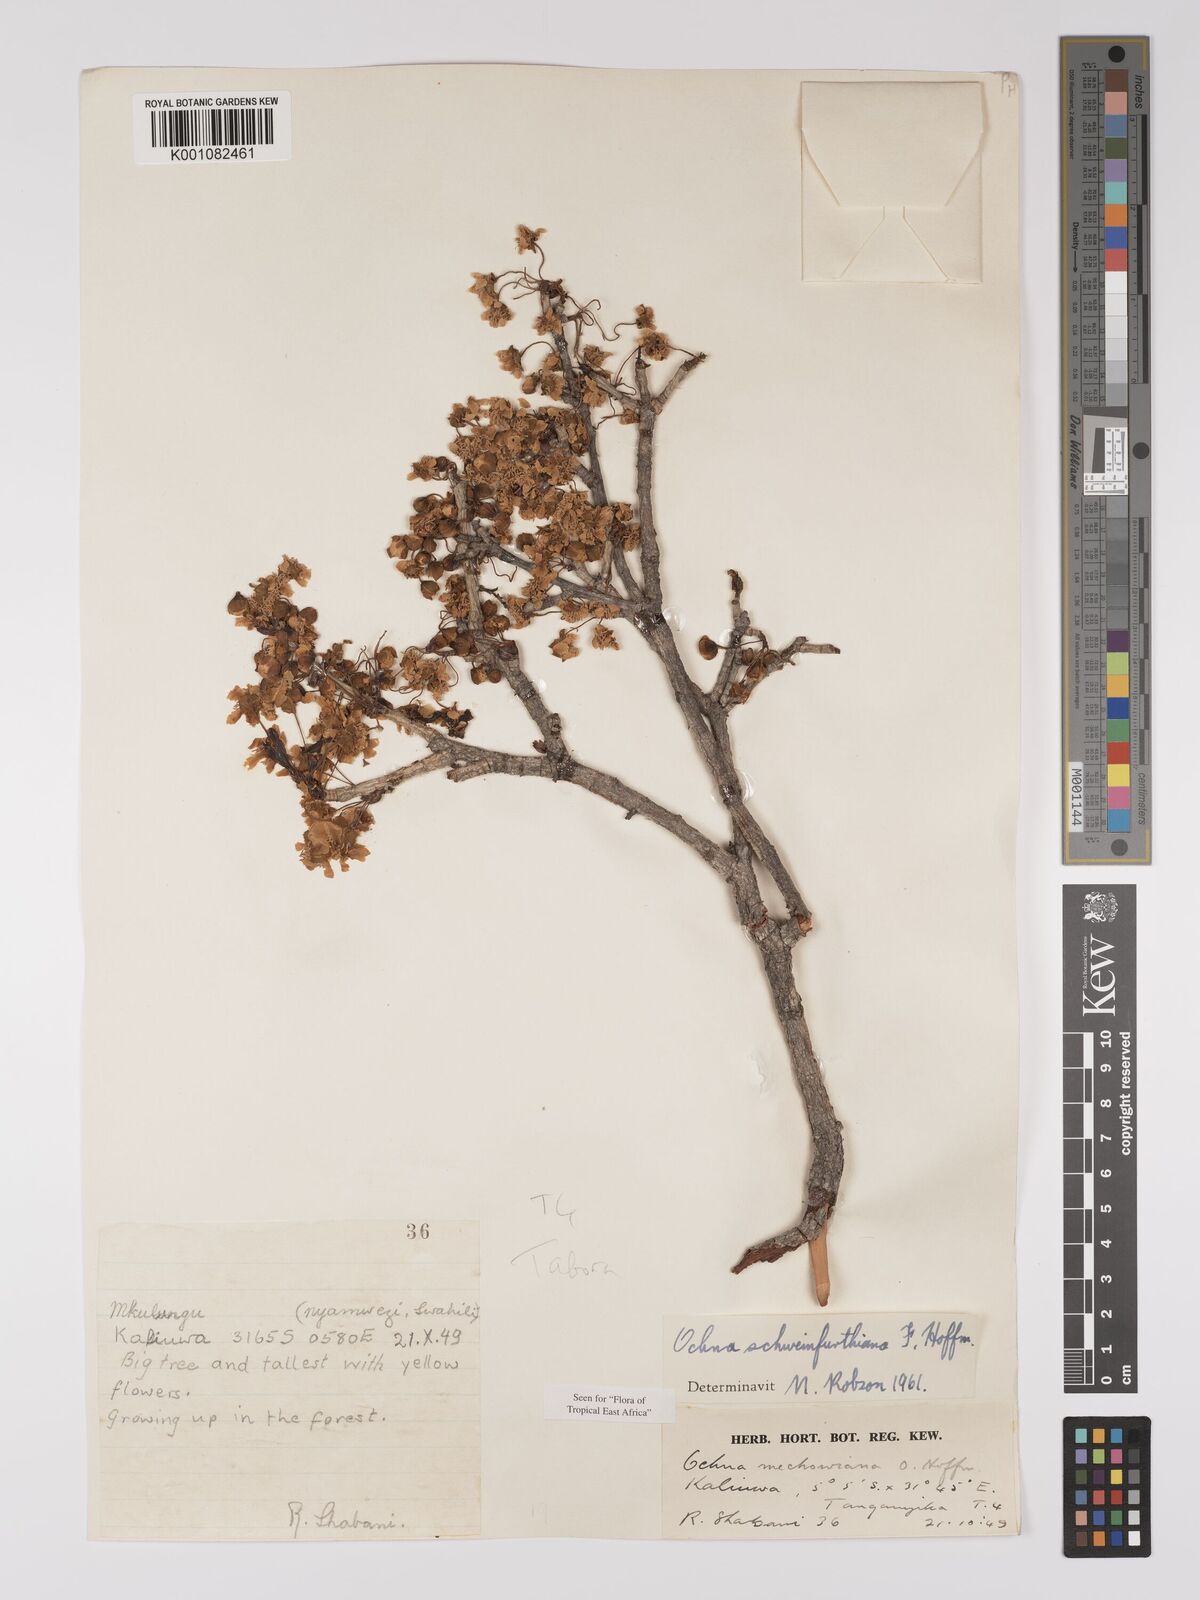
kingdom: Plantae
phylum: Tracheophyta
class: Magnoliopsida
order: Malpighiales
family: Ochnaceae
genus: Ochna
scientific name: Ochna schweinfurthiana
